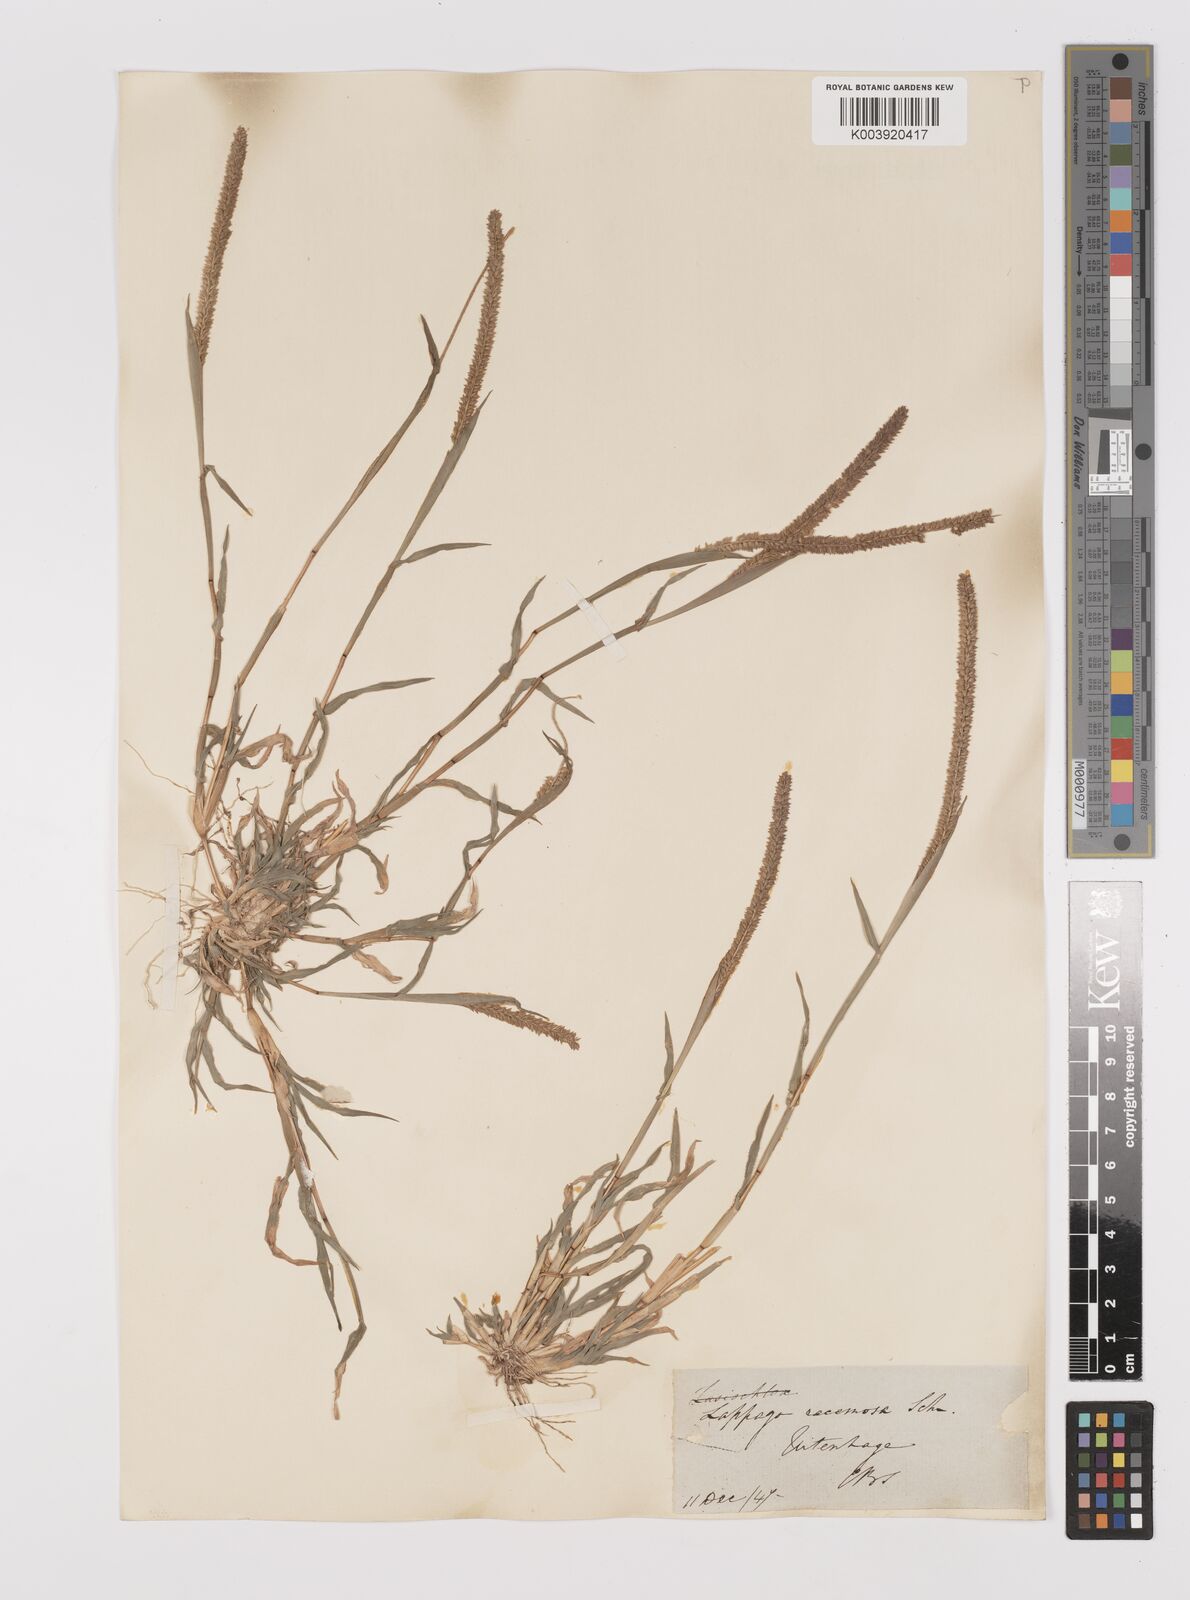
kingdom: Plantae
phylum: Tracheophyta
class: Liliopsida
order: Poales
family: Poaceae
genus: Tragus
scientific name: Tragus berteronianus
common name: African bur-grass
